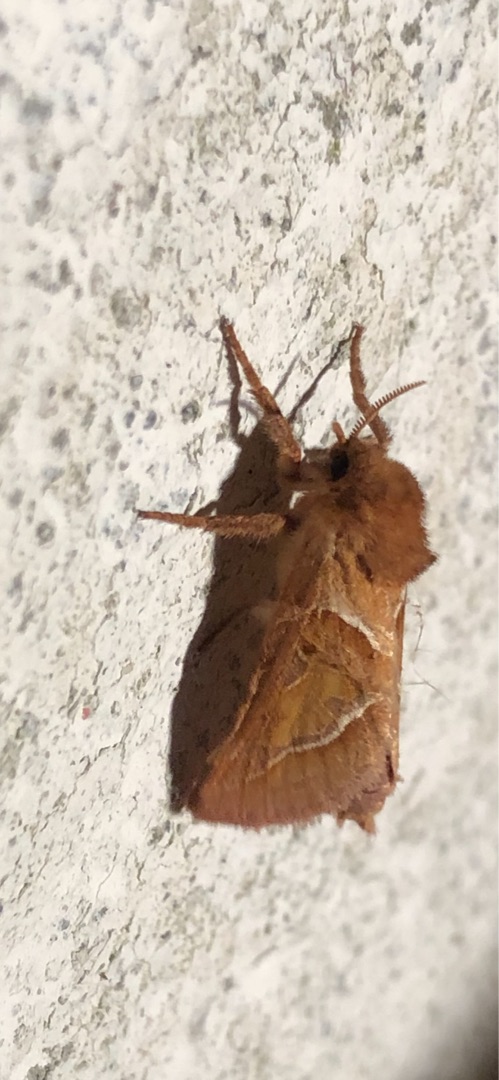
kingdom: Animalia
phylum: Arthropoda
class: Insecta
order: Lepidoptera
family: Hepialidae
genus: Triodia
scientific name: Triodia sylvina
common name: Skræpperodæder
